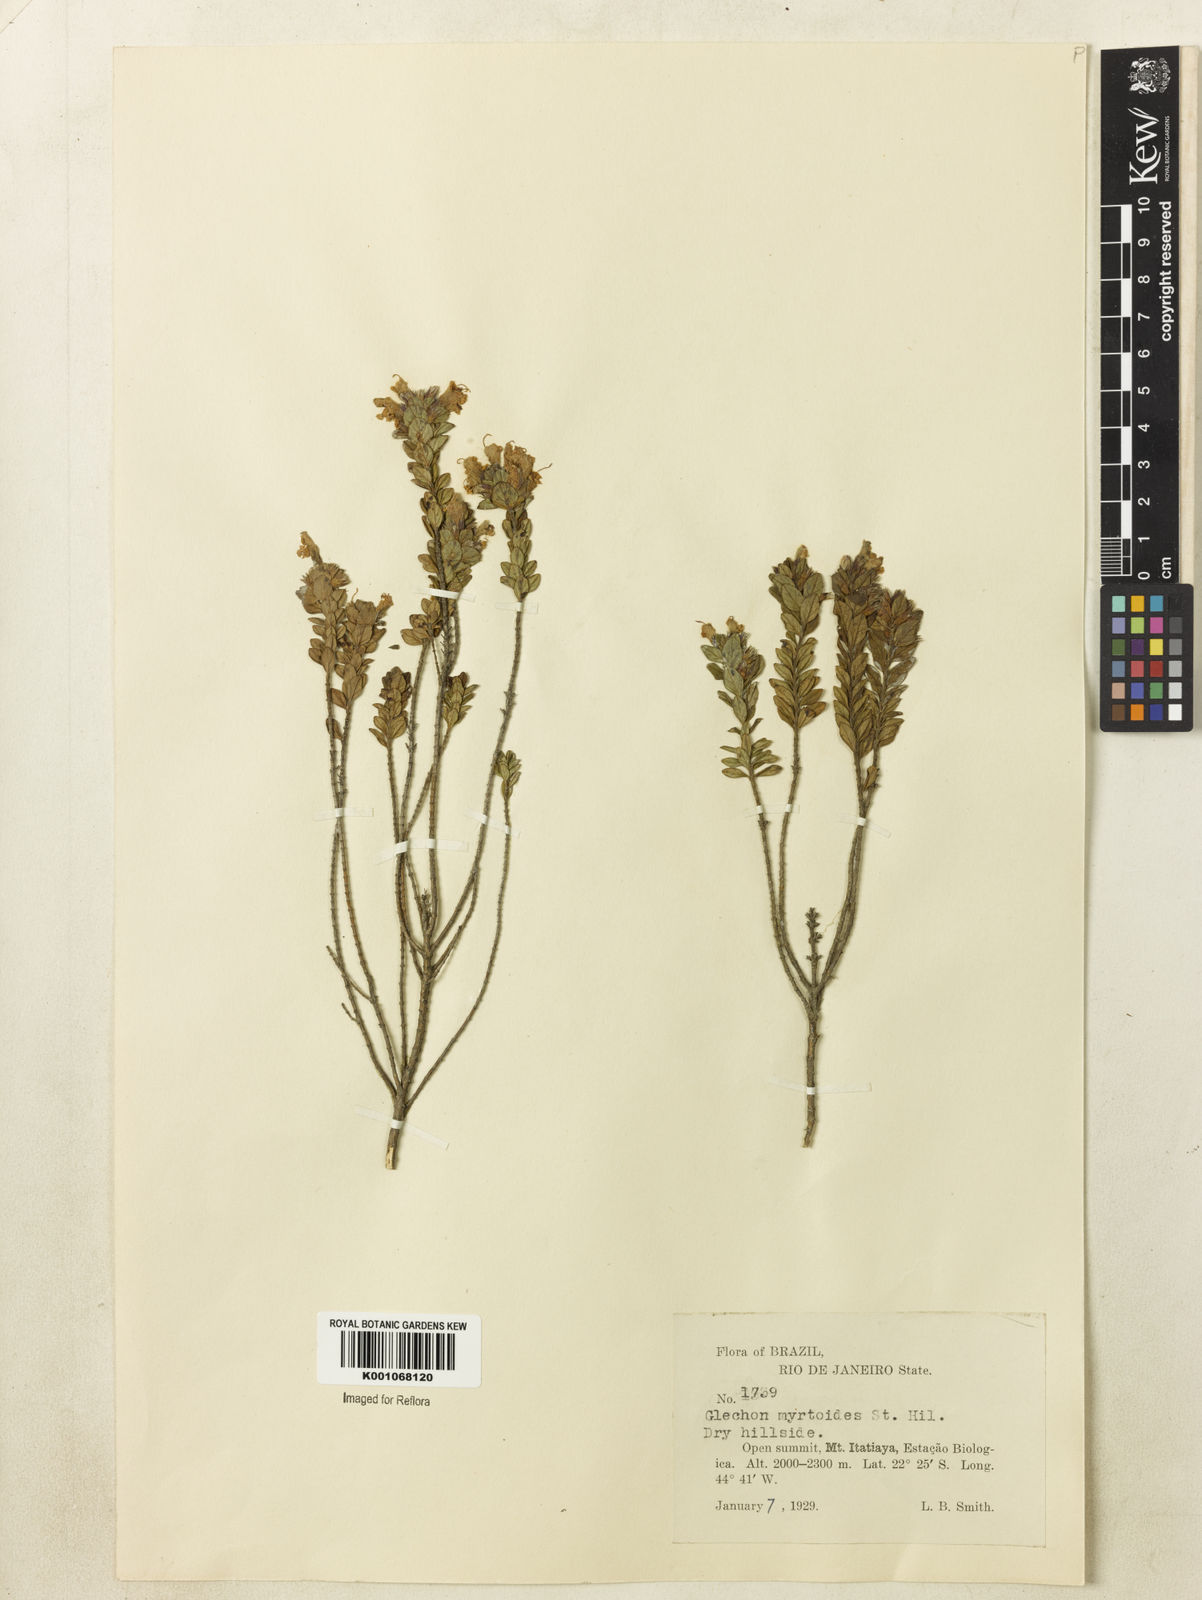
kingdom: Plantae
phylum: Tracheophyta
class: Magnoliopsida
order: Lamiales
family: Lamiaceae
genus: Hesperozygis
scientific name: Hesperozygis myrtoides
